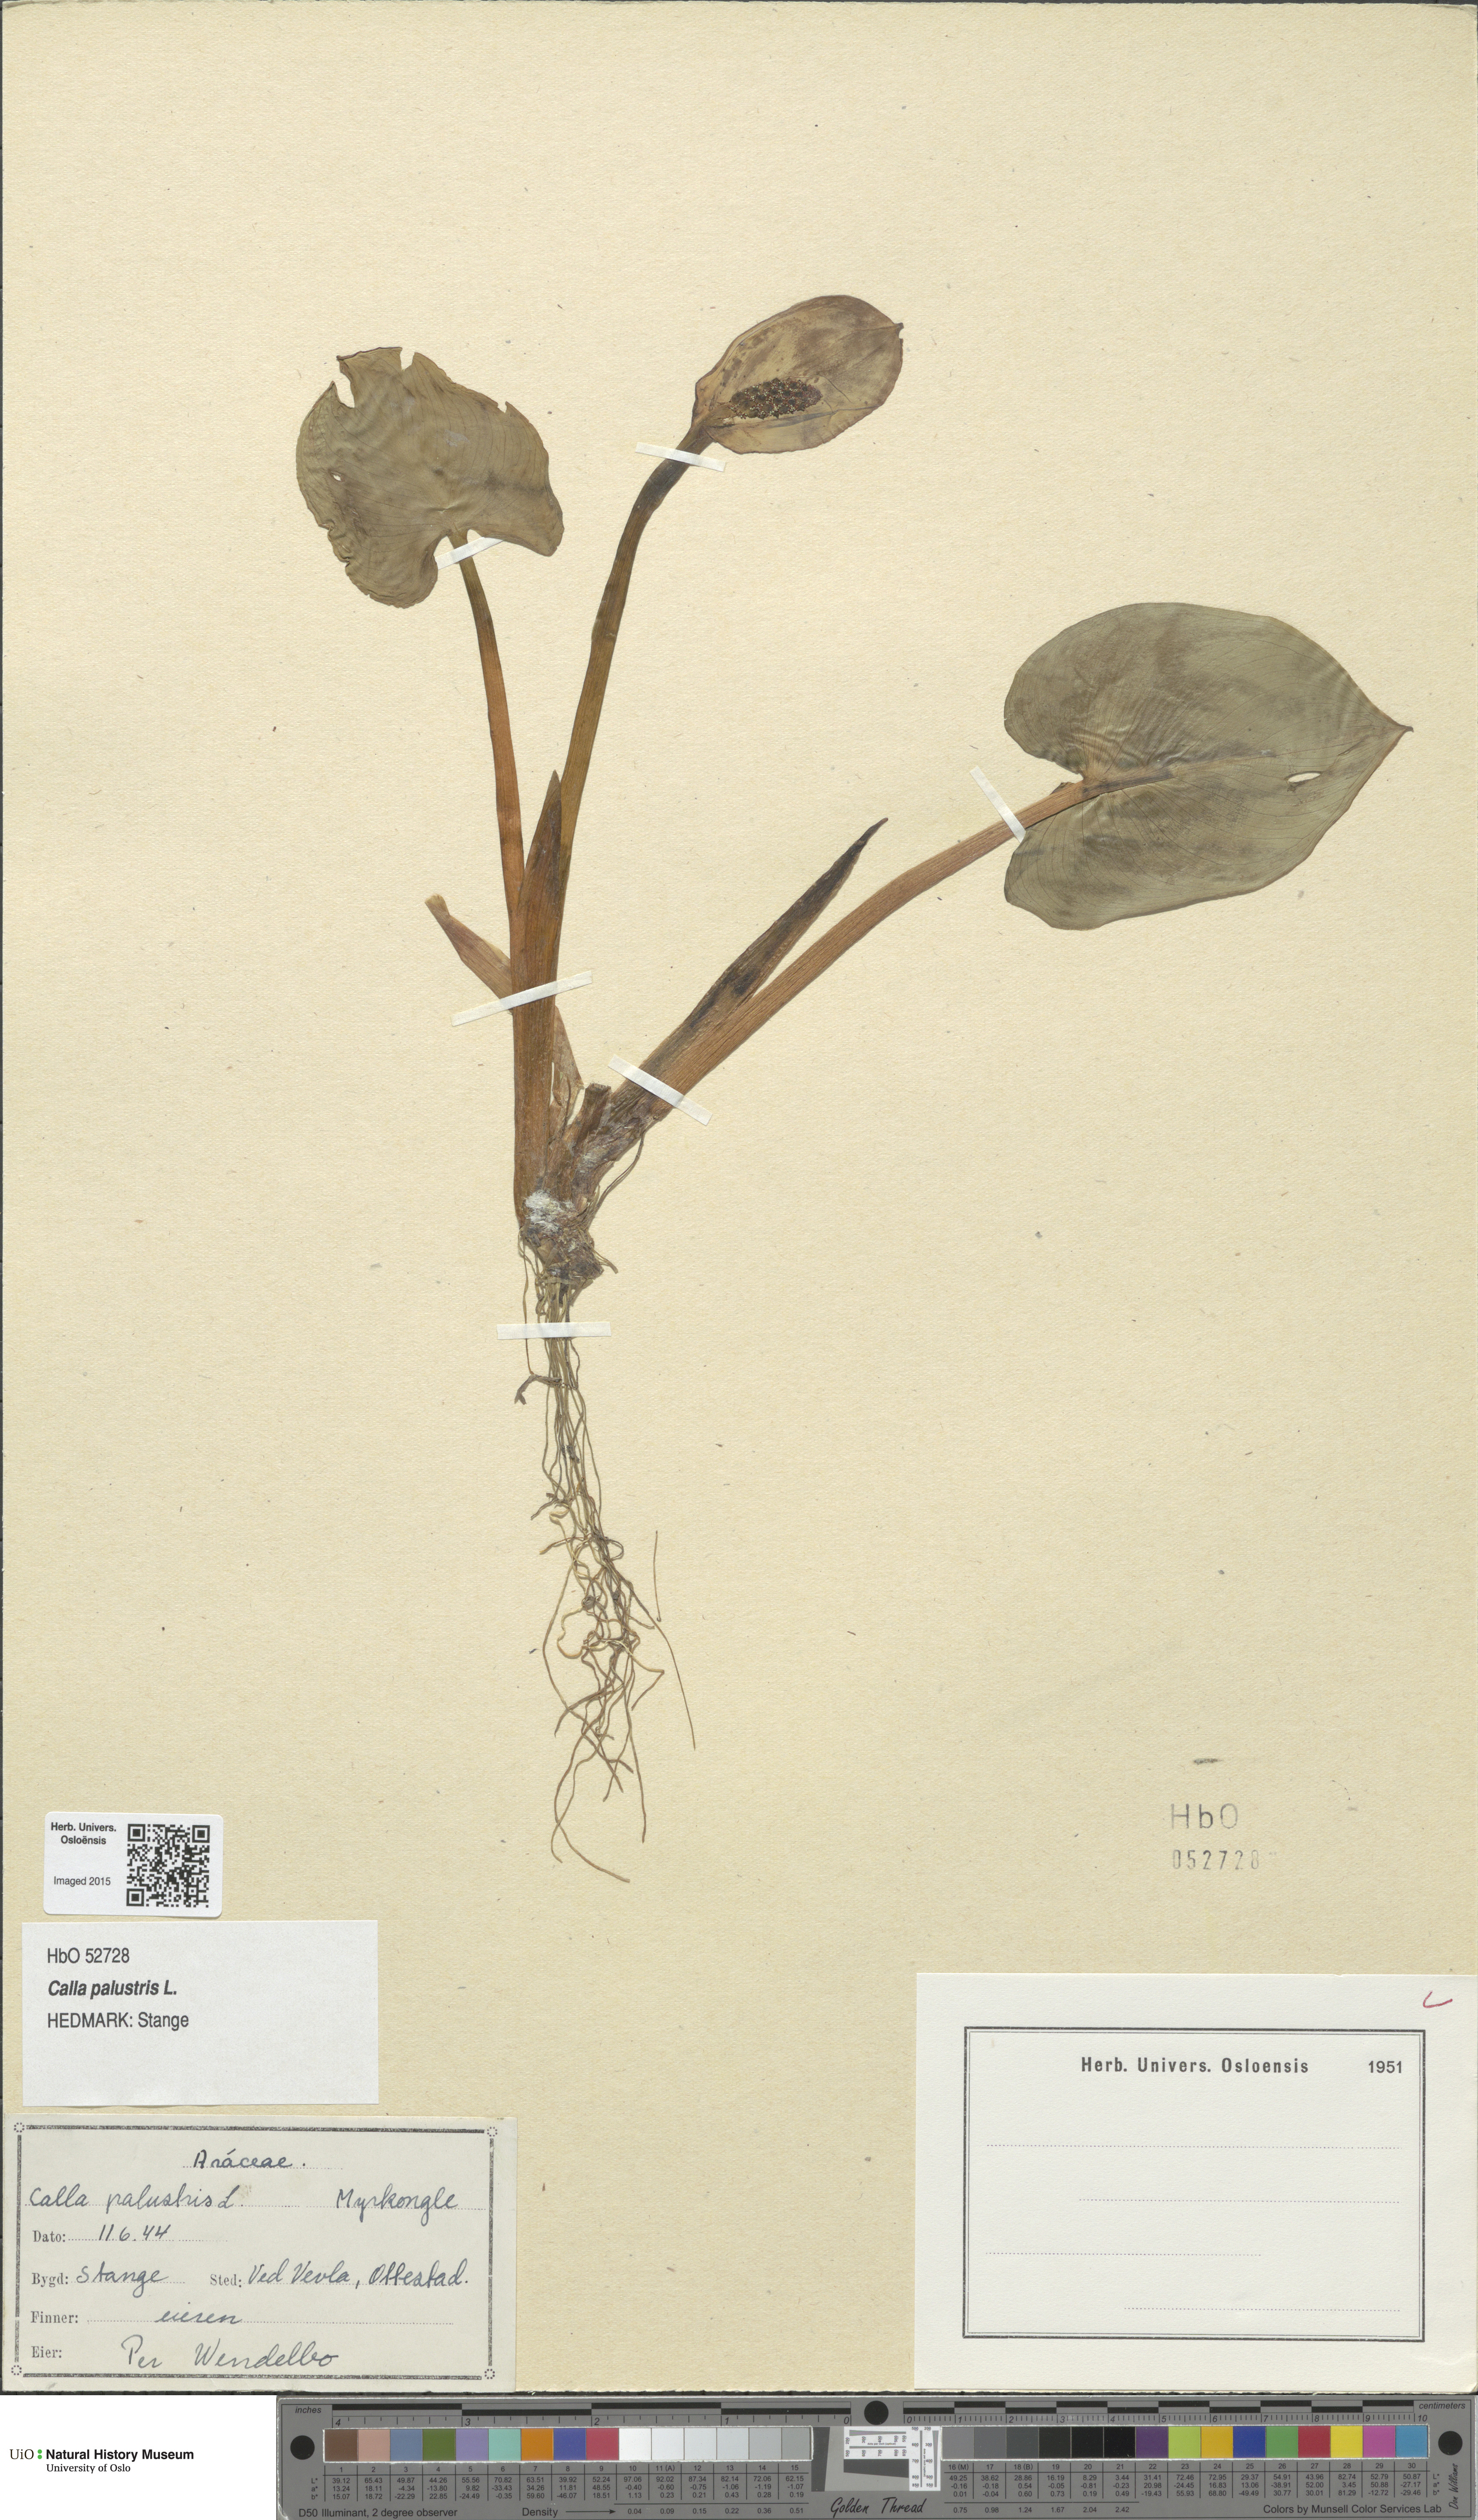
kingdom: Plantae
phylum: Tracheophyta
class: Liliopsida
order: Alismatales
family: Araceae
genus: Calla
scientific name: Calla palustris
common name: Bog arum
